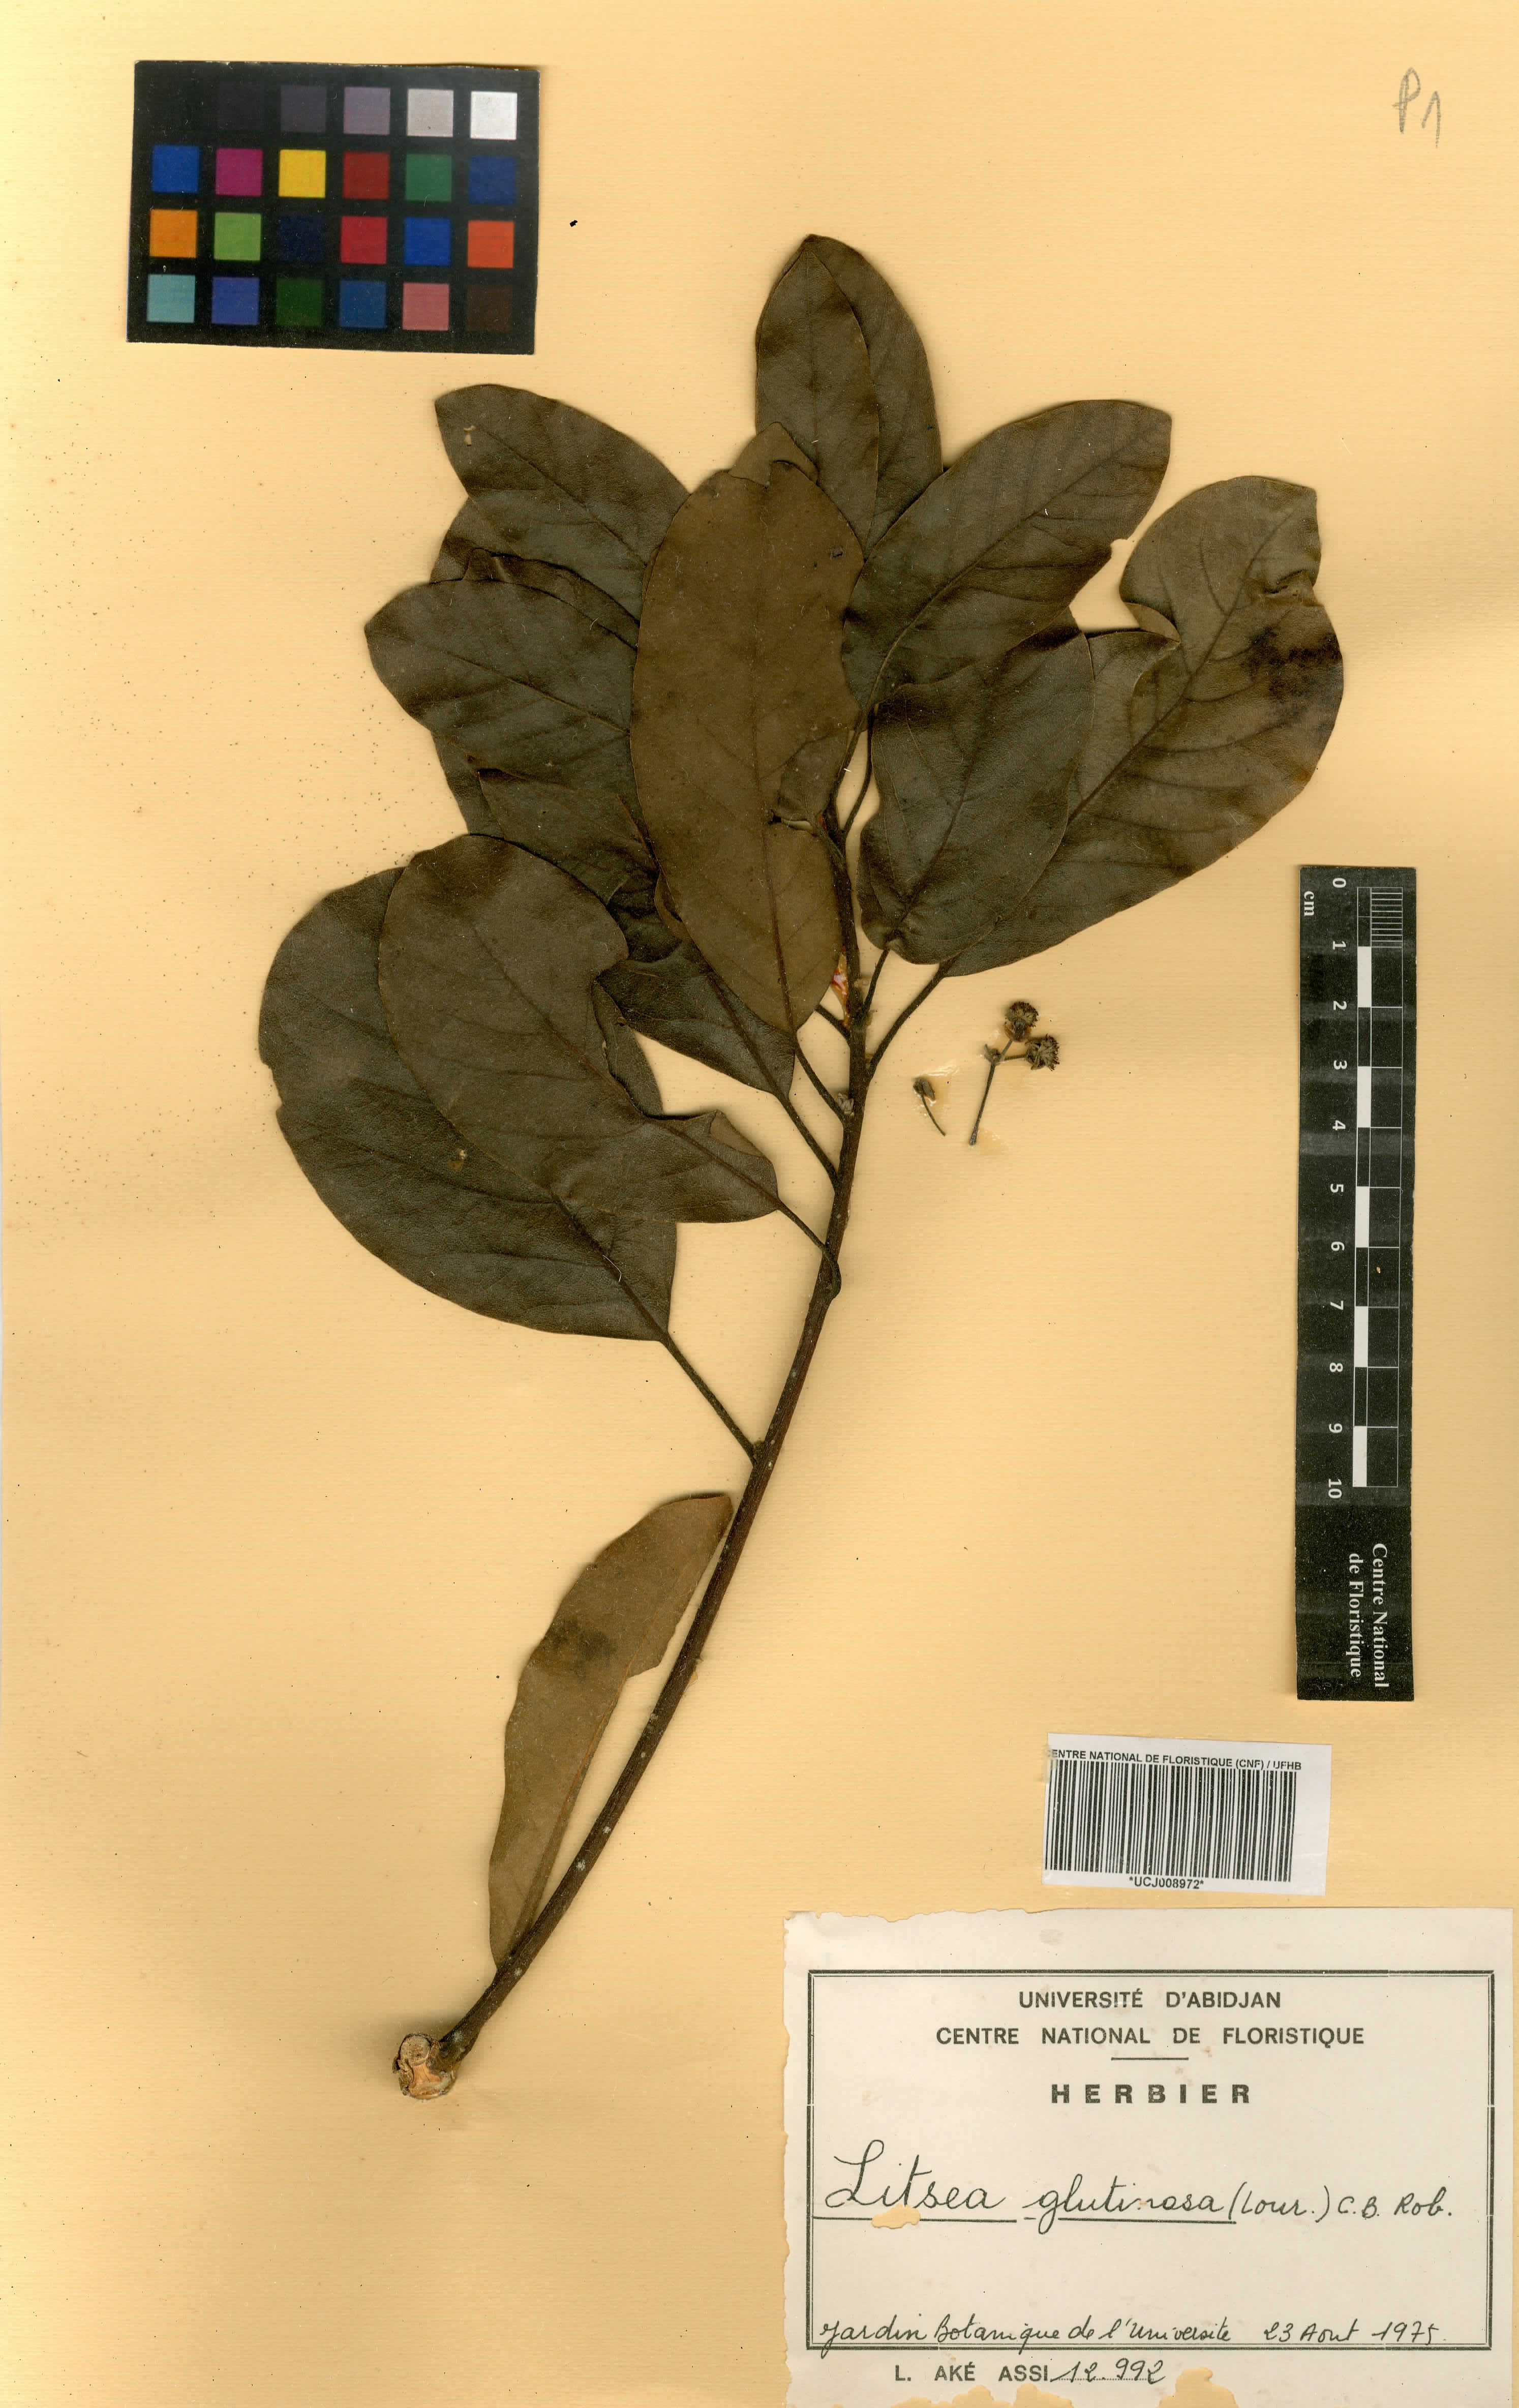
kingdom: Plantae
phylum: Tracheophyta
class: Magnoliopsida
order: Laurales
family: Lauraceae
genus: Litsea
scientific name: Litsea glutinosa
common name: Indian-laurel
